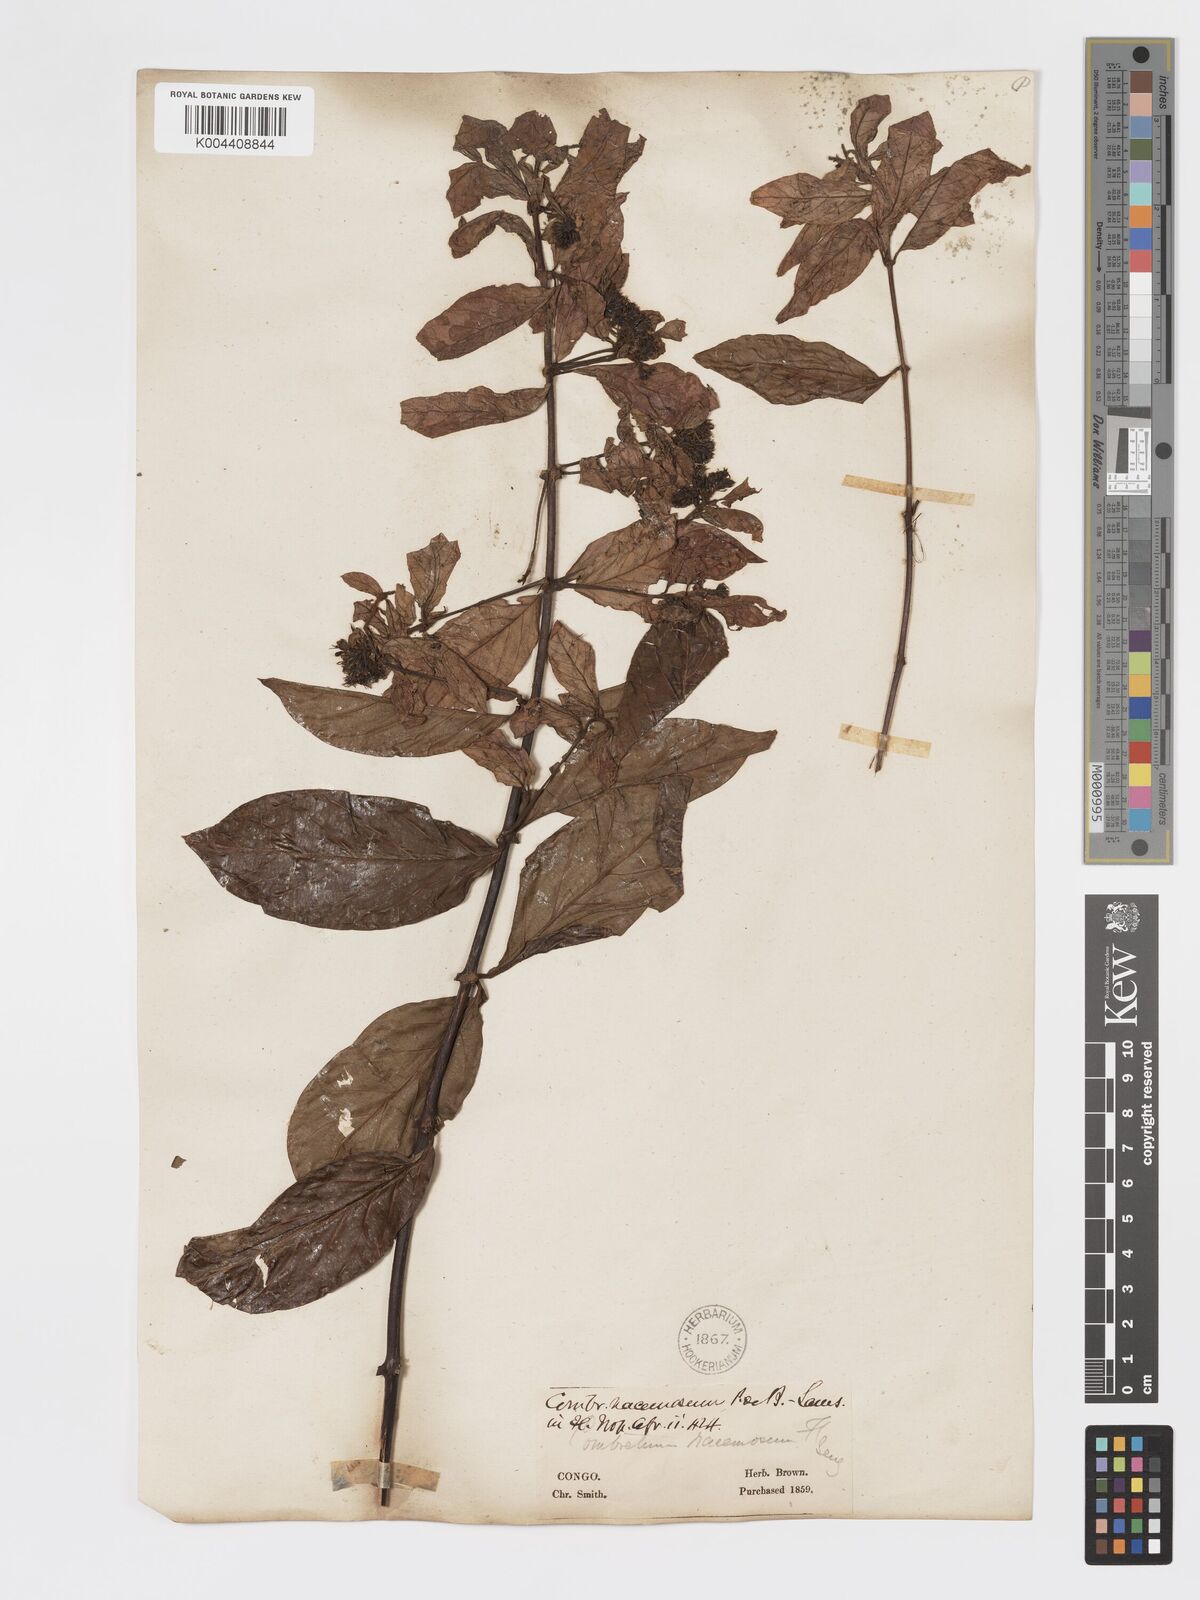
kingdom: Plantae
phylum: Tracheophyta
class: Magnoliopsida
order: Myrtales
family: Combretaceae
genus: Combretum
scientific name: Combretum racemosum
